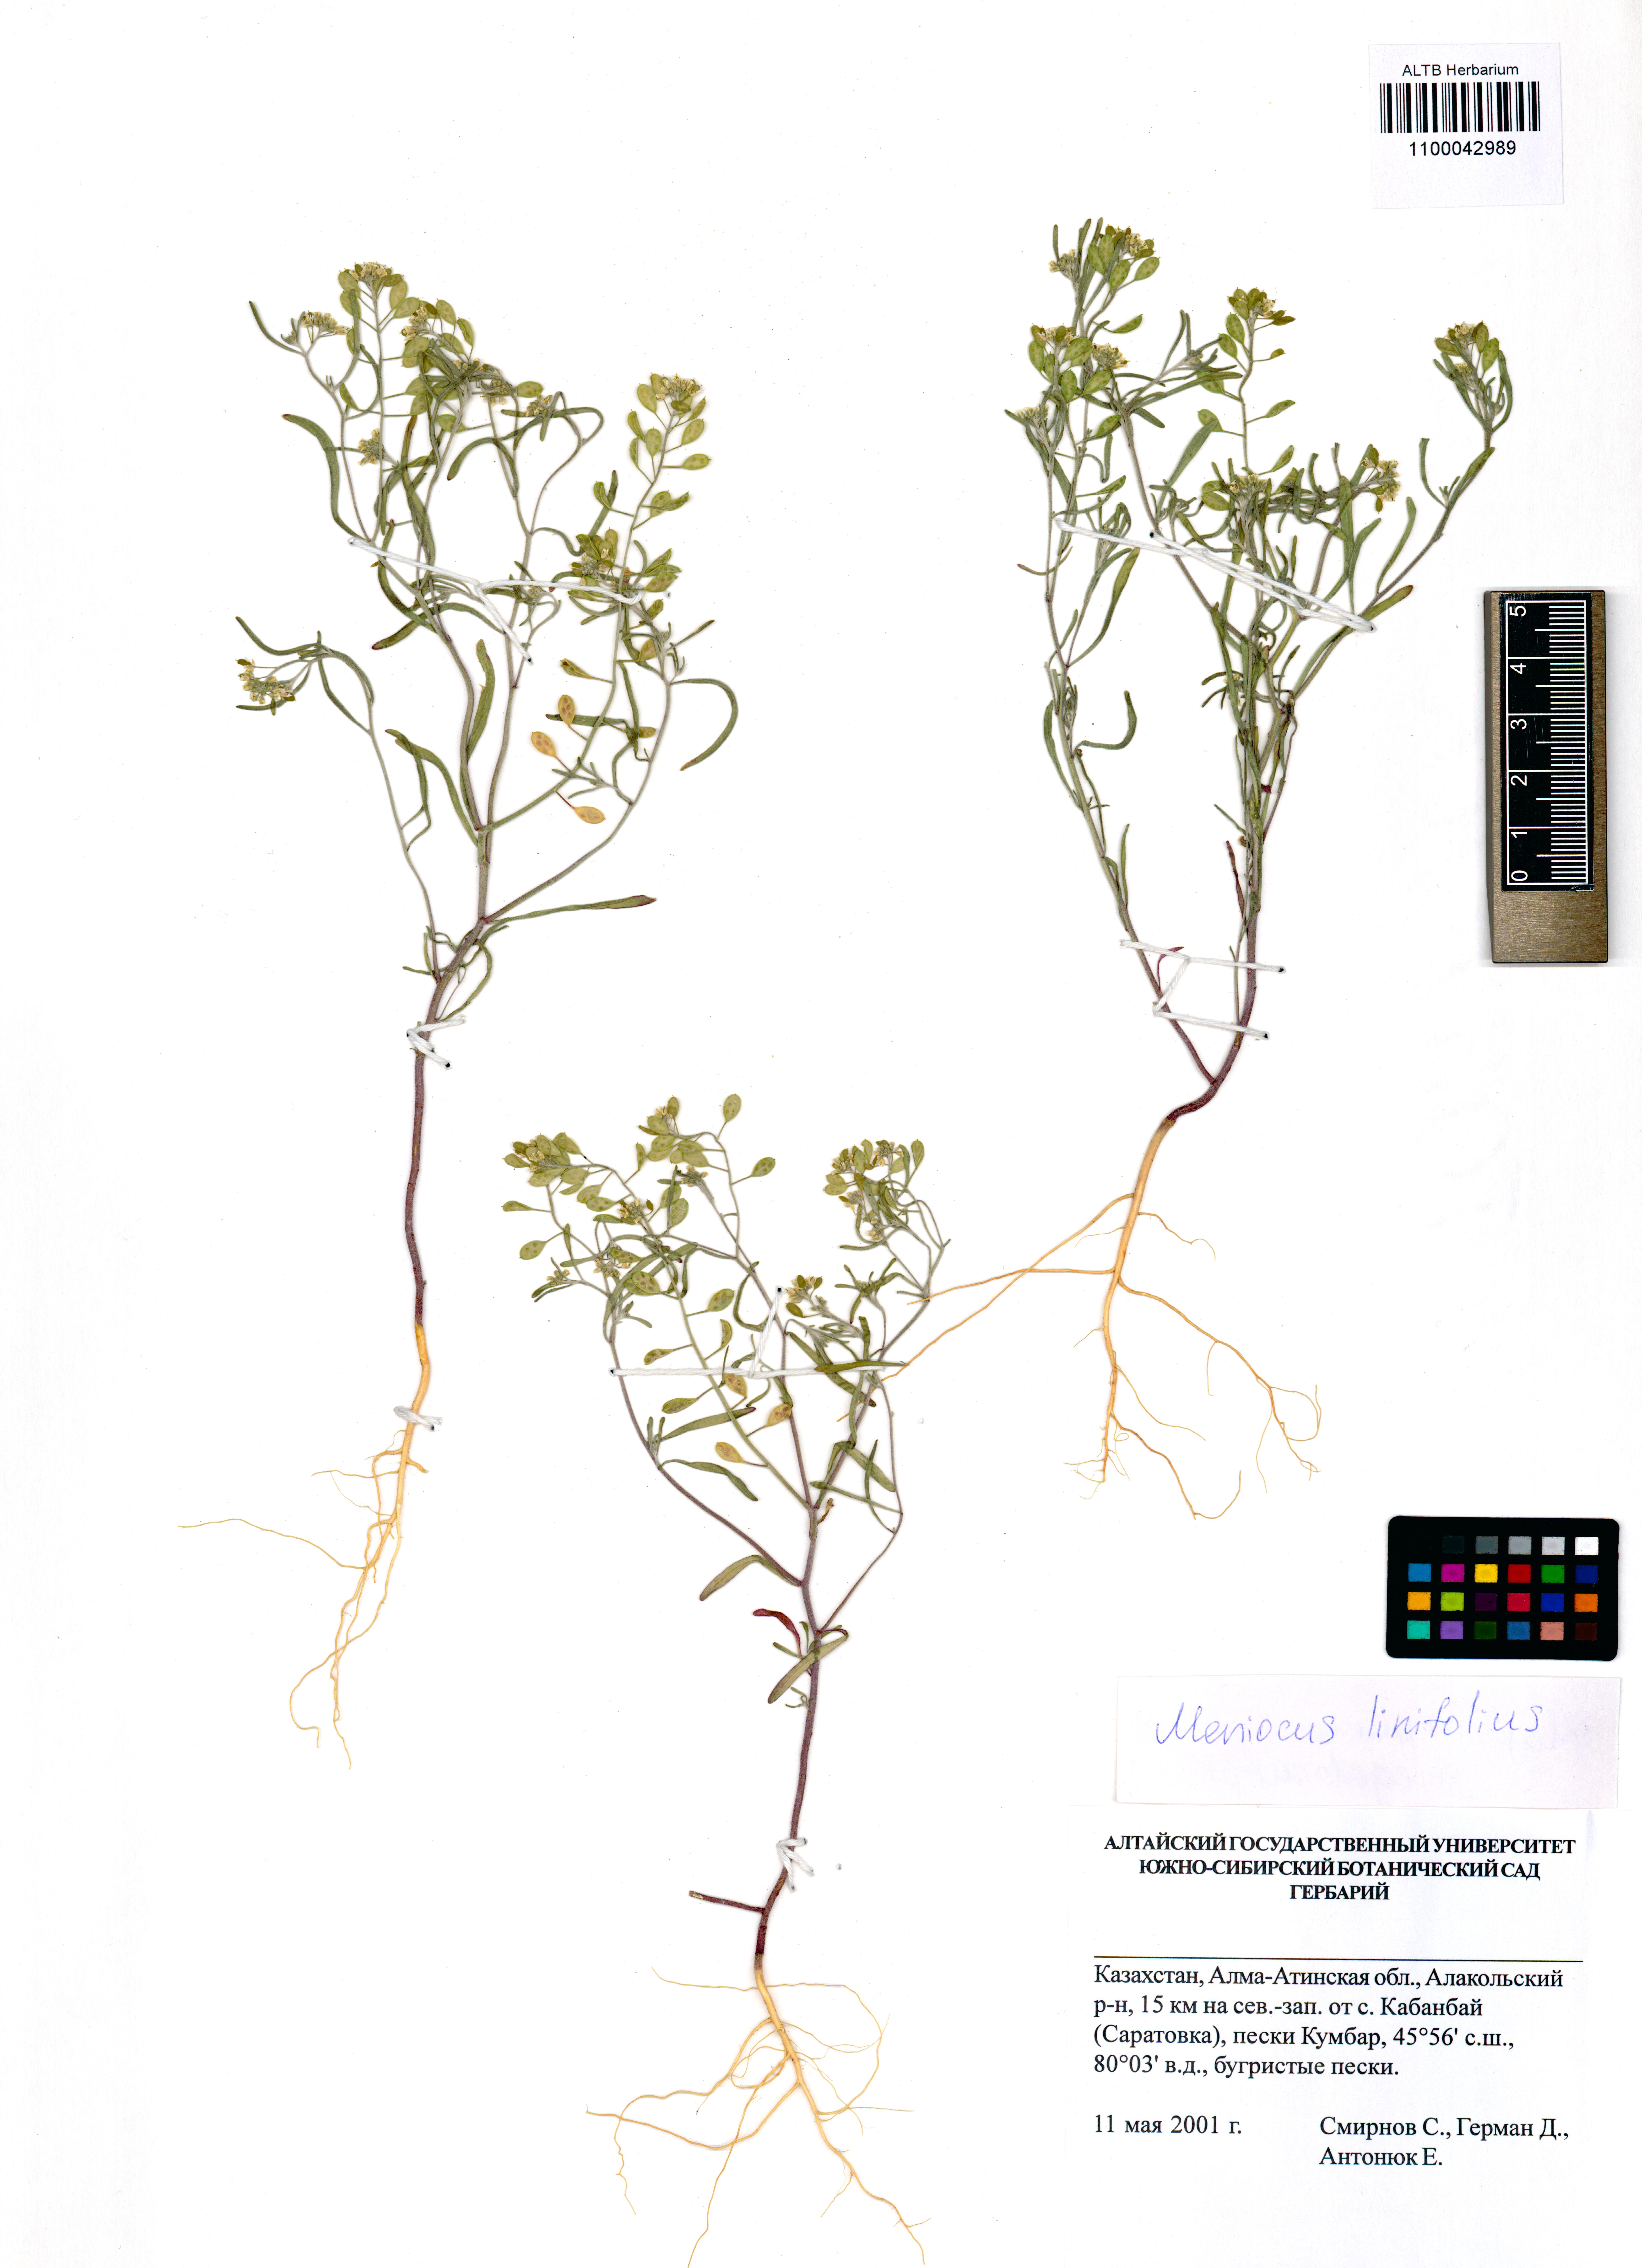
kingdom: Plantae
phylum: Tracheophyta
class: Magnoliopsida
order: Brassicales
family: Brassicaceae
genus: Meniocus
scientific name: Meniocus linifolius
